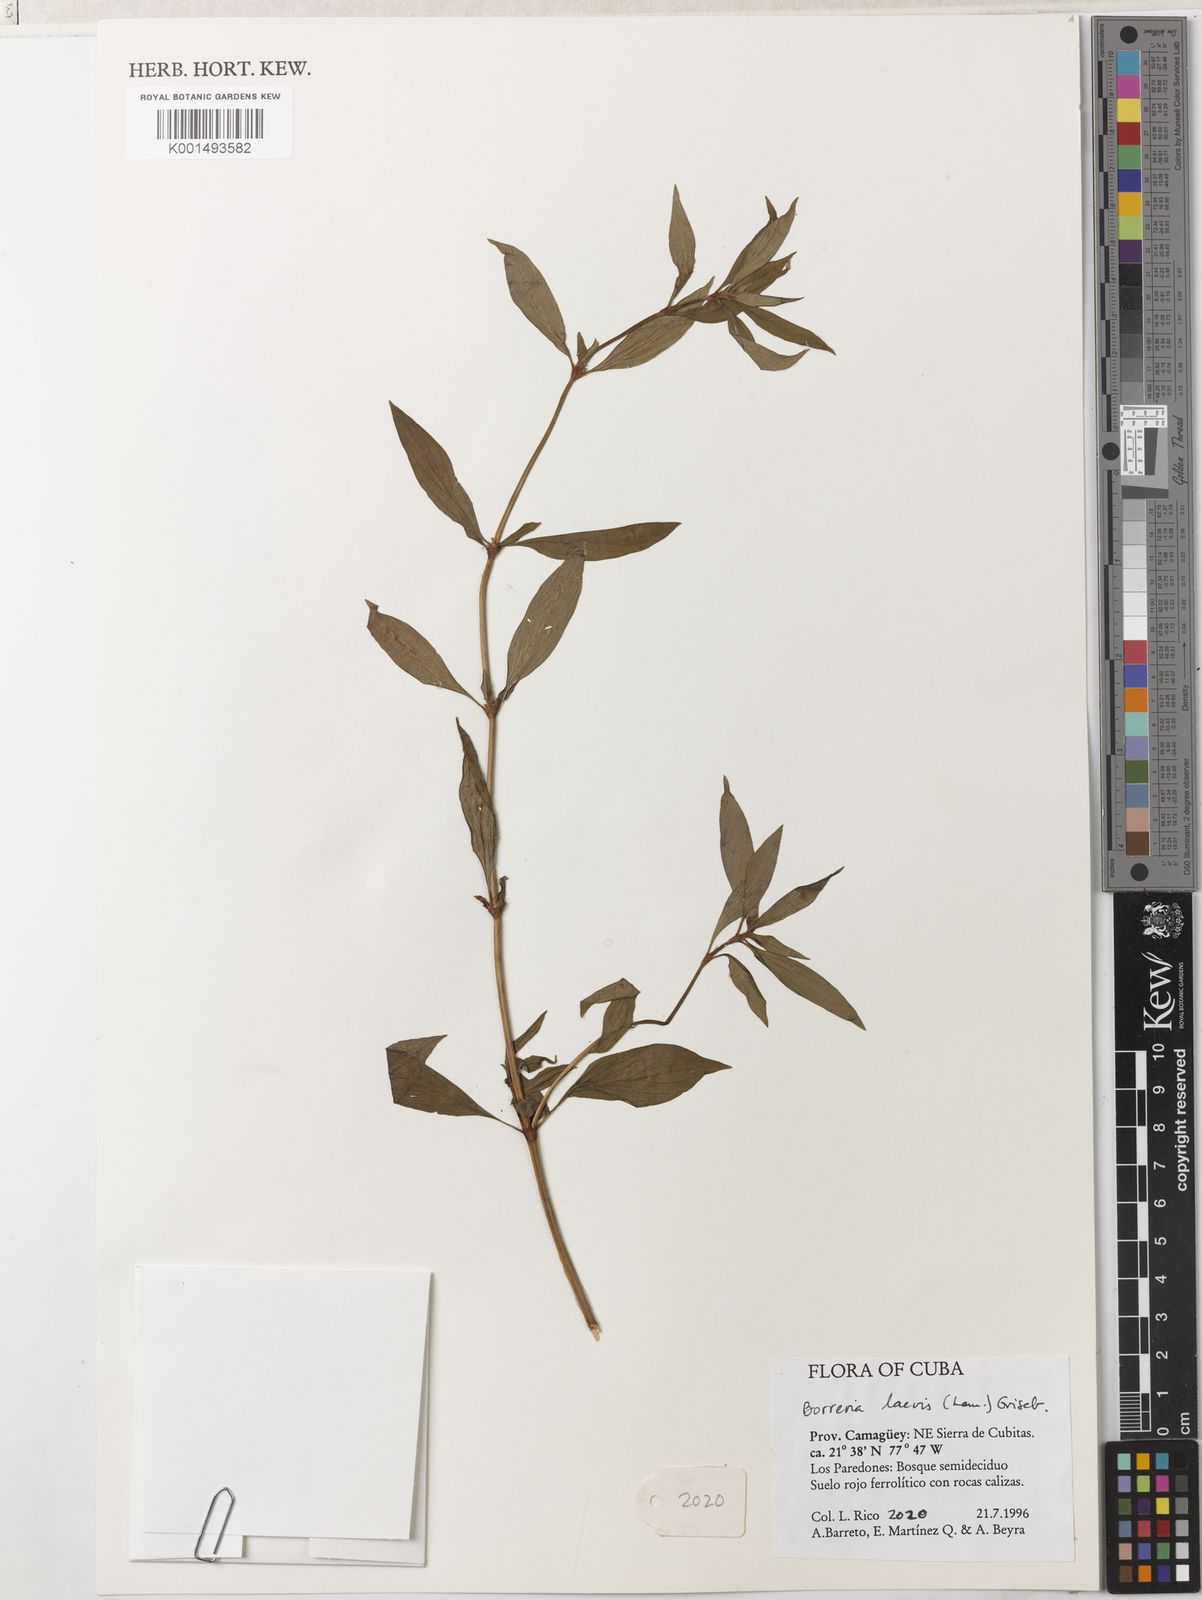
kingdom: Plantae
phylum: Tracheophyta
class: Magnoliopsida
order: Gentianales
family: Rubiaceae
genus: Spermacoce
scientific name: Spermacoce ocymoides
